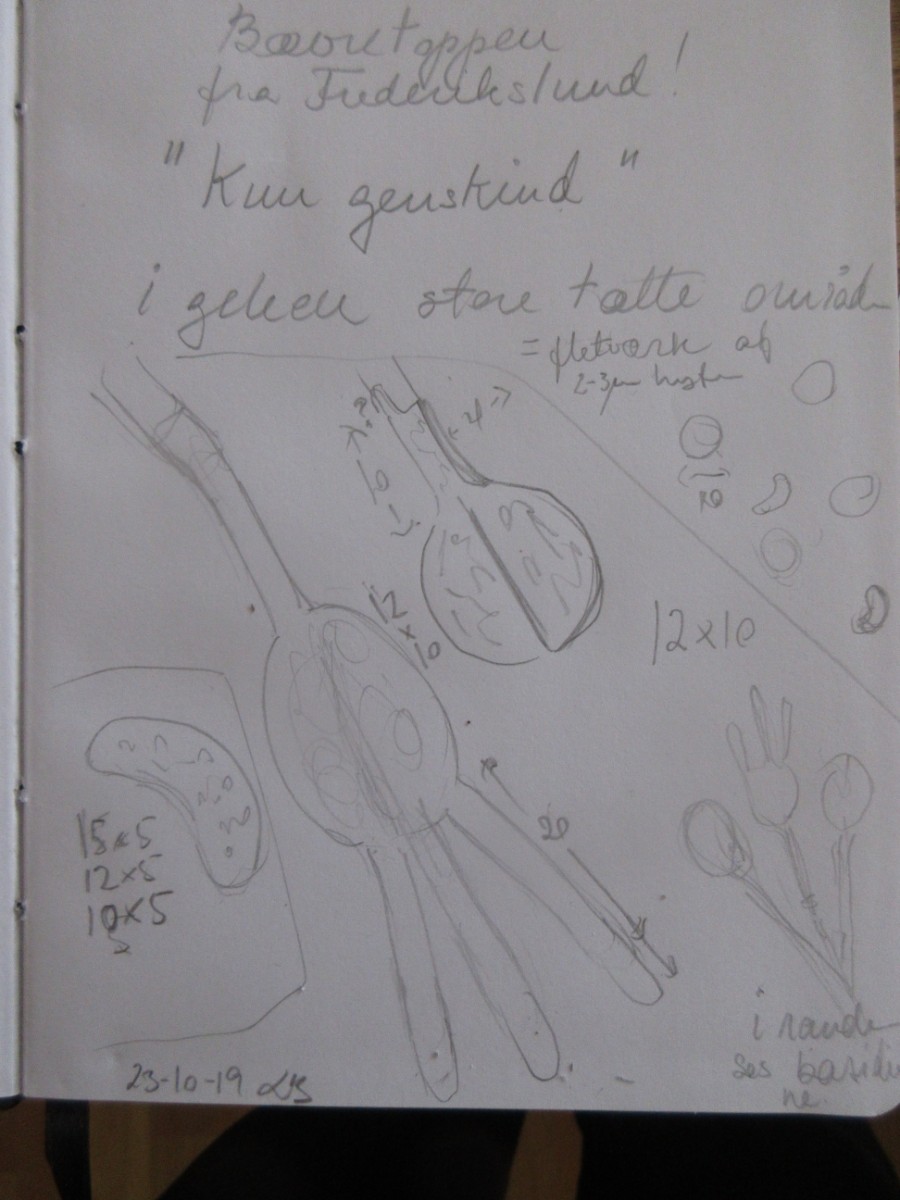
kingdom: Fungi
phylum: Basidiomycota
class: Agaricomycetes
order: Auriculariales
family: Hyaloriaceae
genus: Myxarium
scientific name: Myxarium nucleatum
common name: klar bævretop
